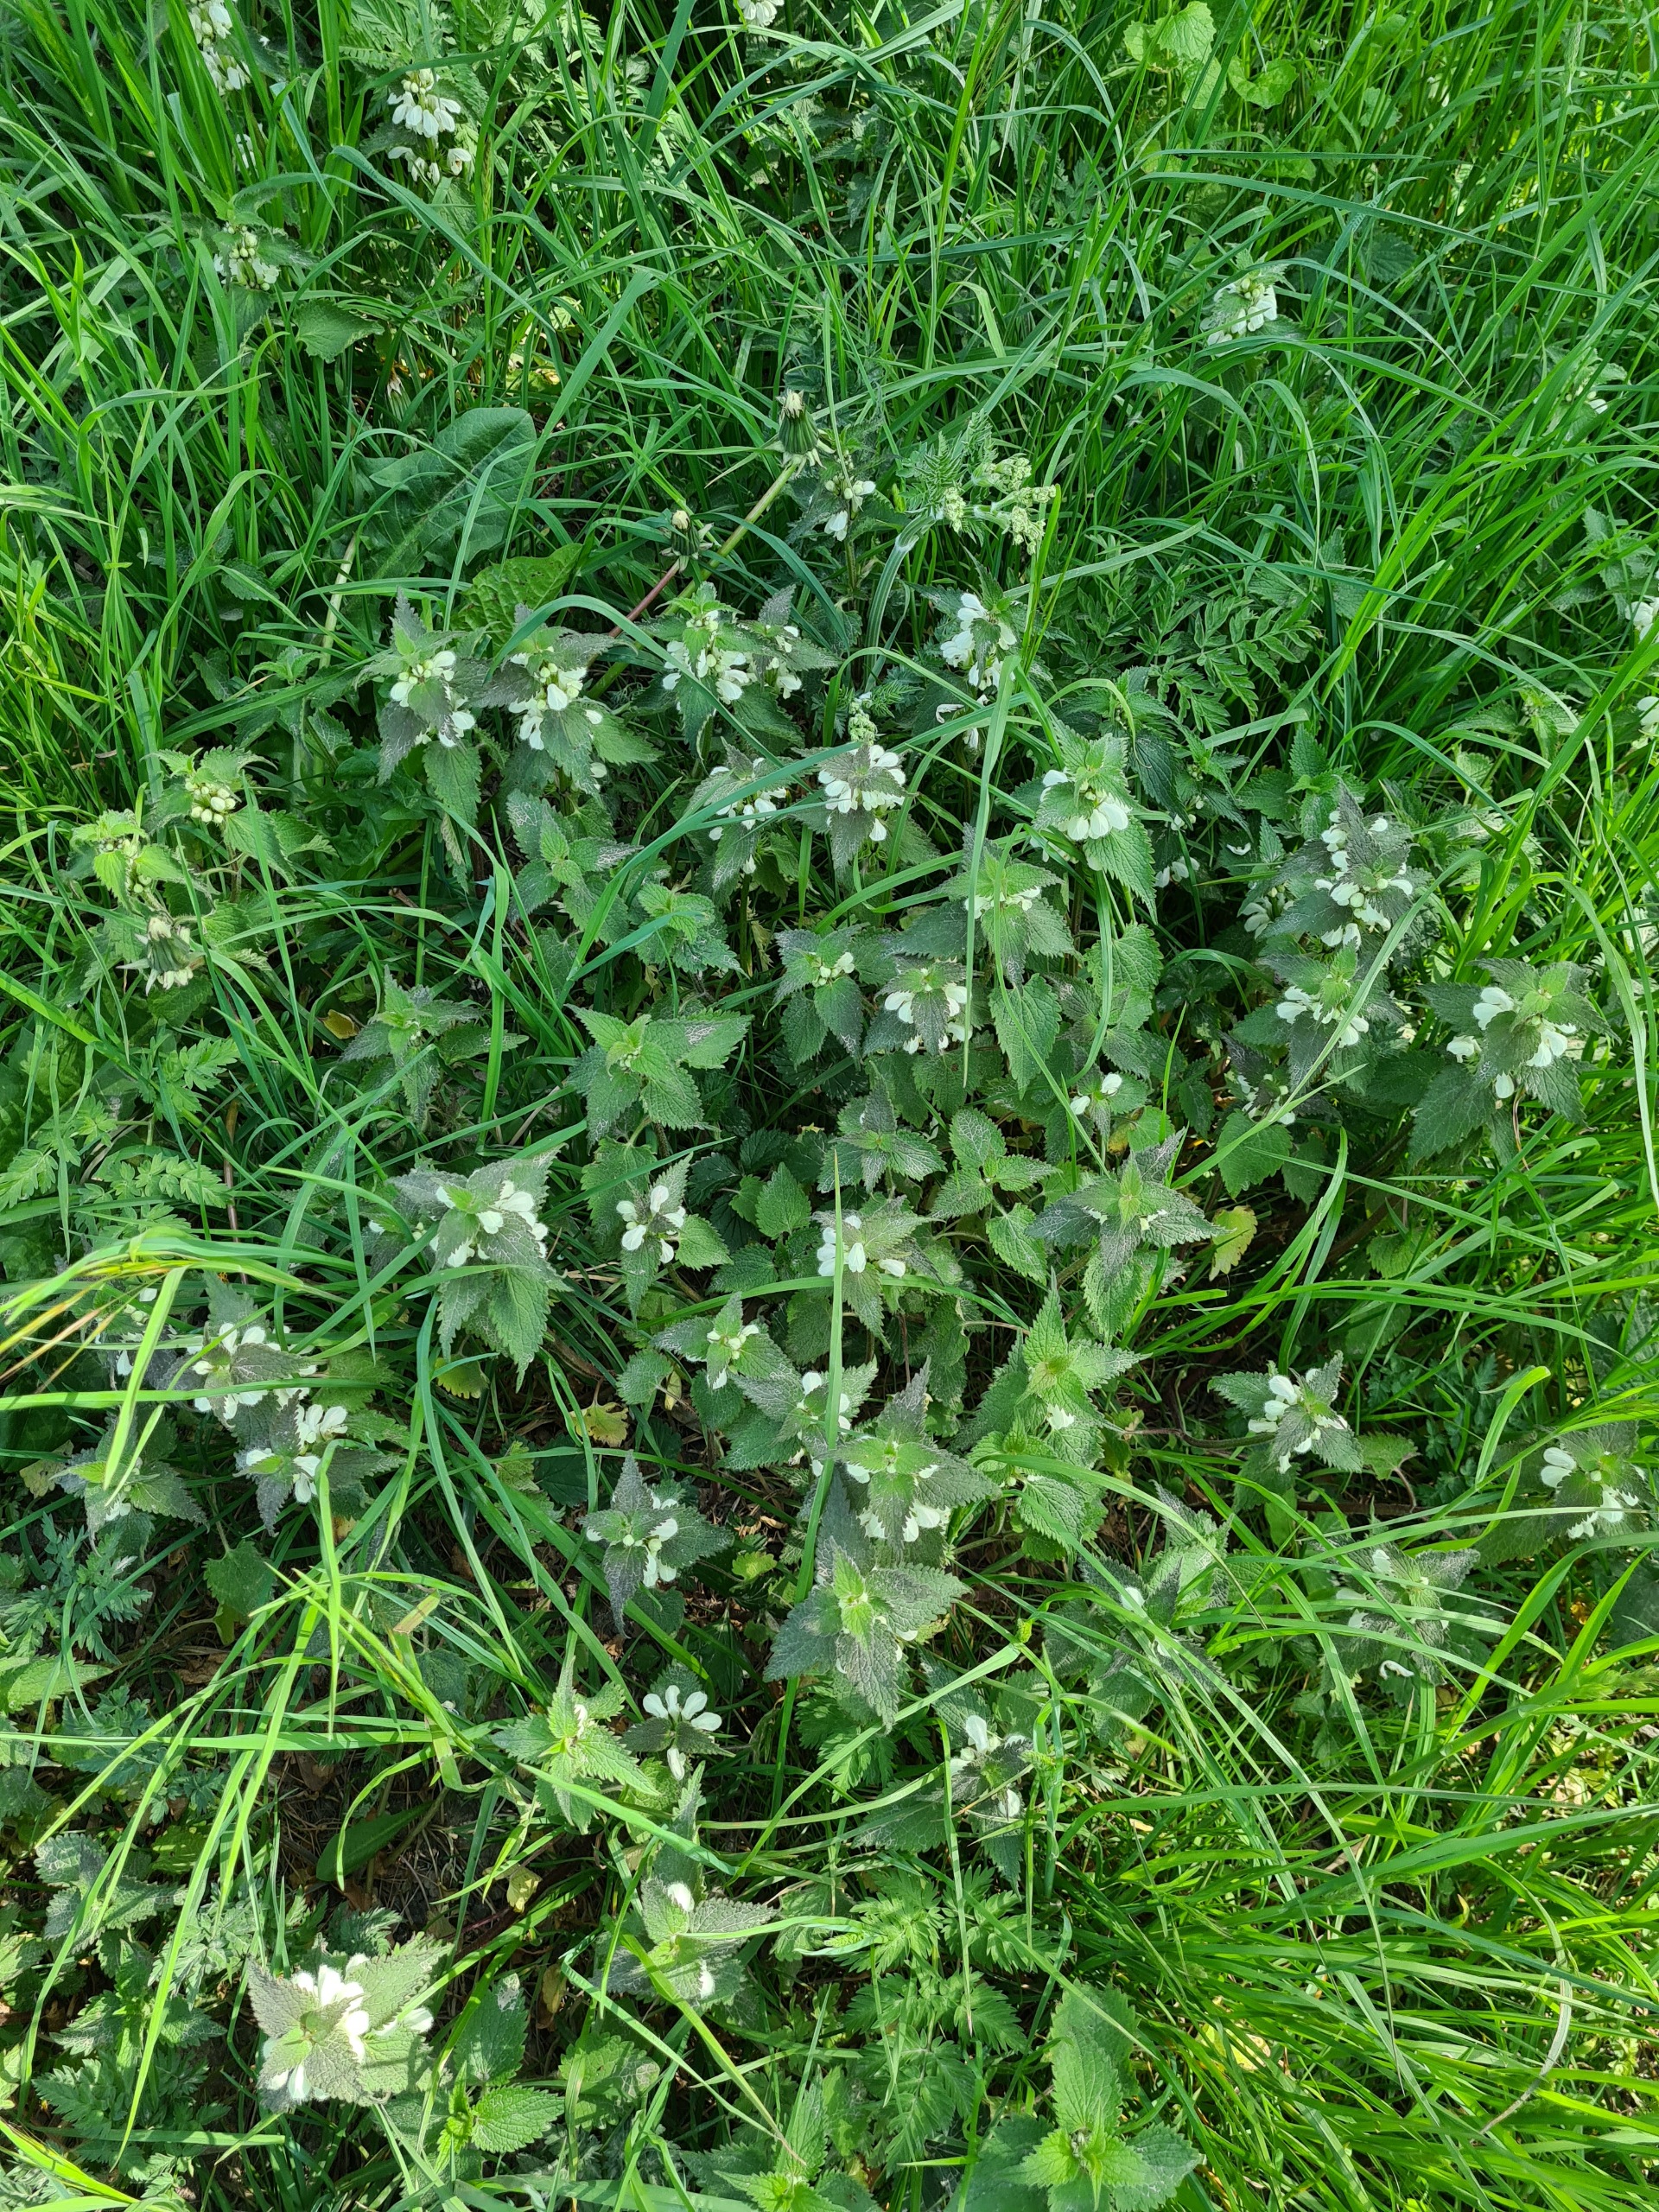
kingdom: Plantae
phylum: Tracheophyta
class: Magnoliopsida
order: Lamiales
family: Lamiaceae
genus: Lamium
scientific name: Lamium album
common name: Døvnælde
